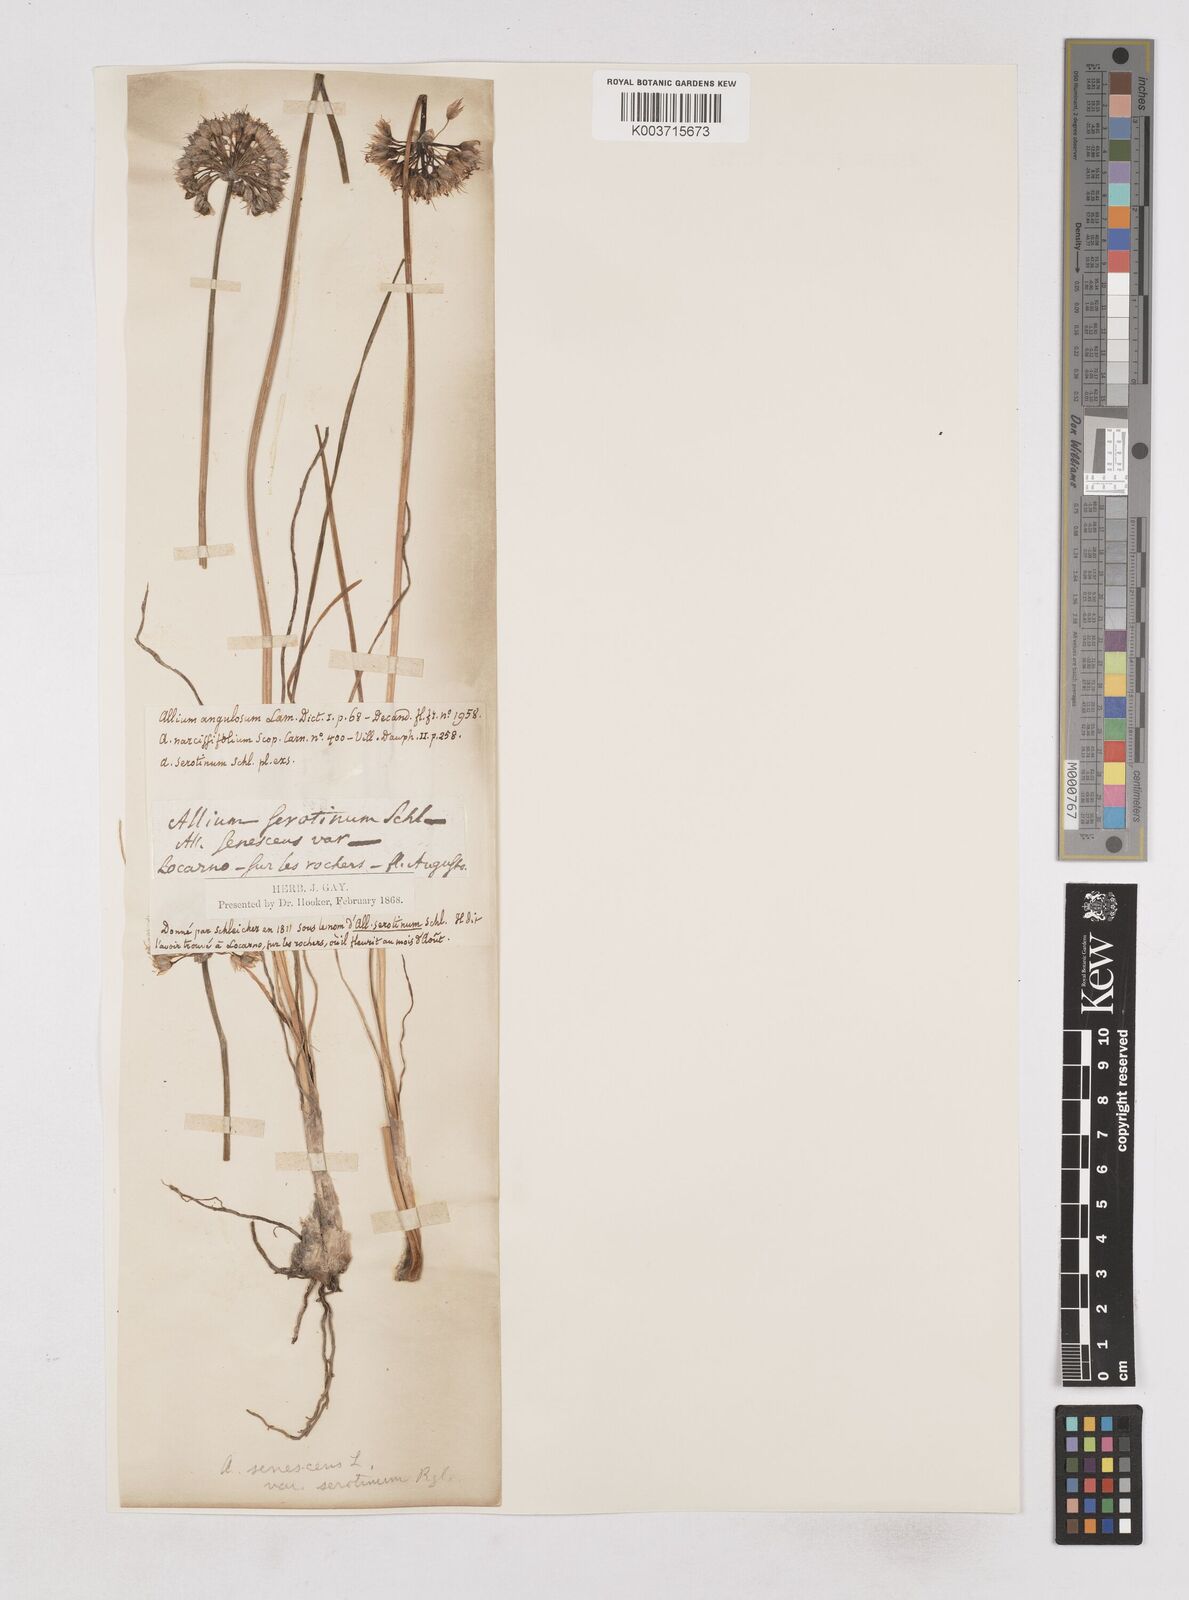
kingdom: Plantae
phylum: Tracheophyta
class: Liliopsida
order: Asparagales
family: Amaryllidaceae
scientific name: Amaryllidaceae
